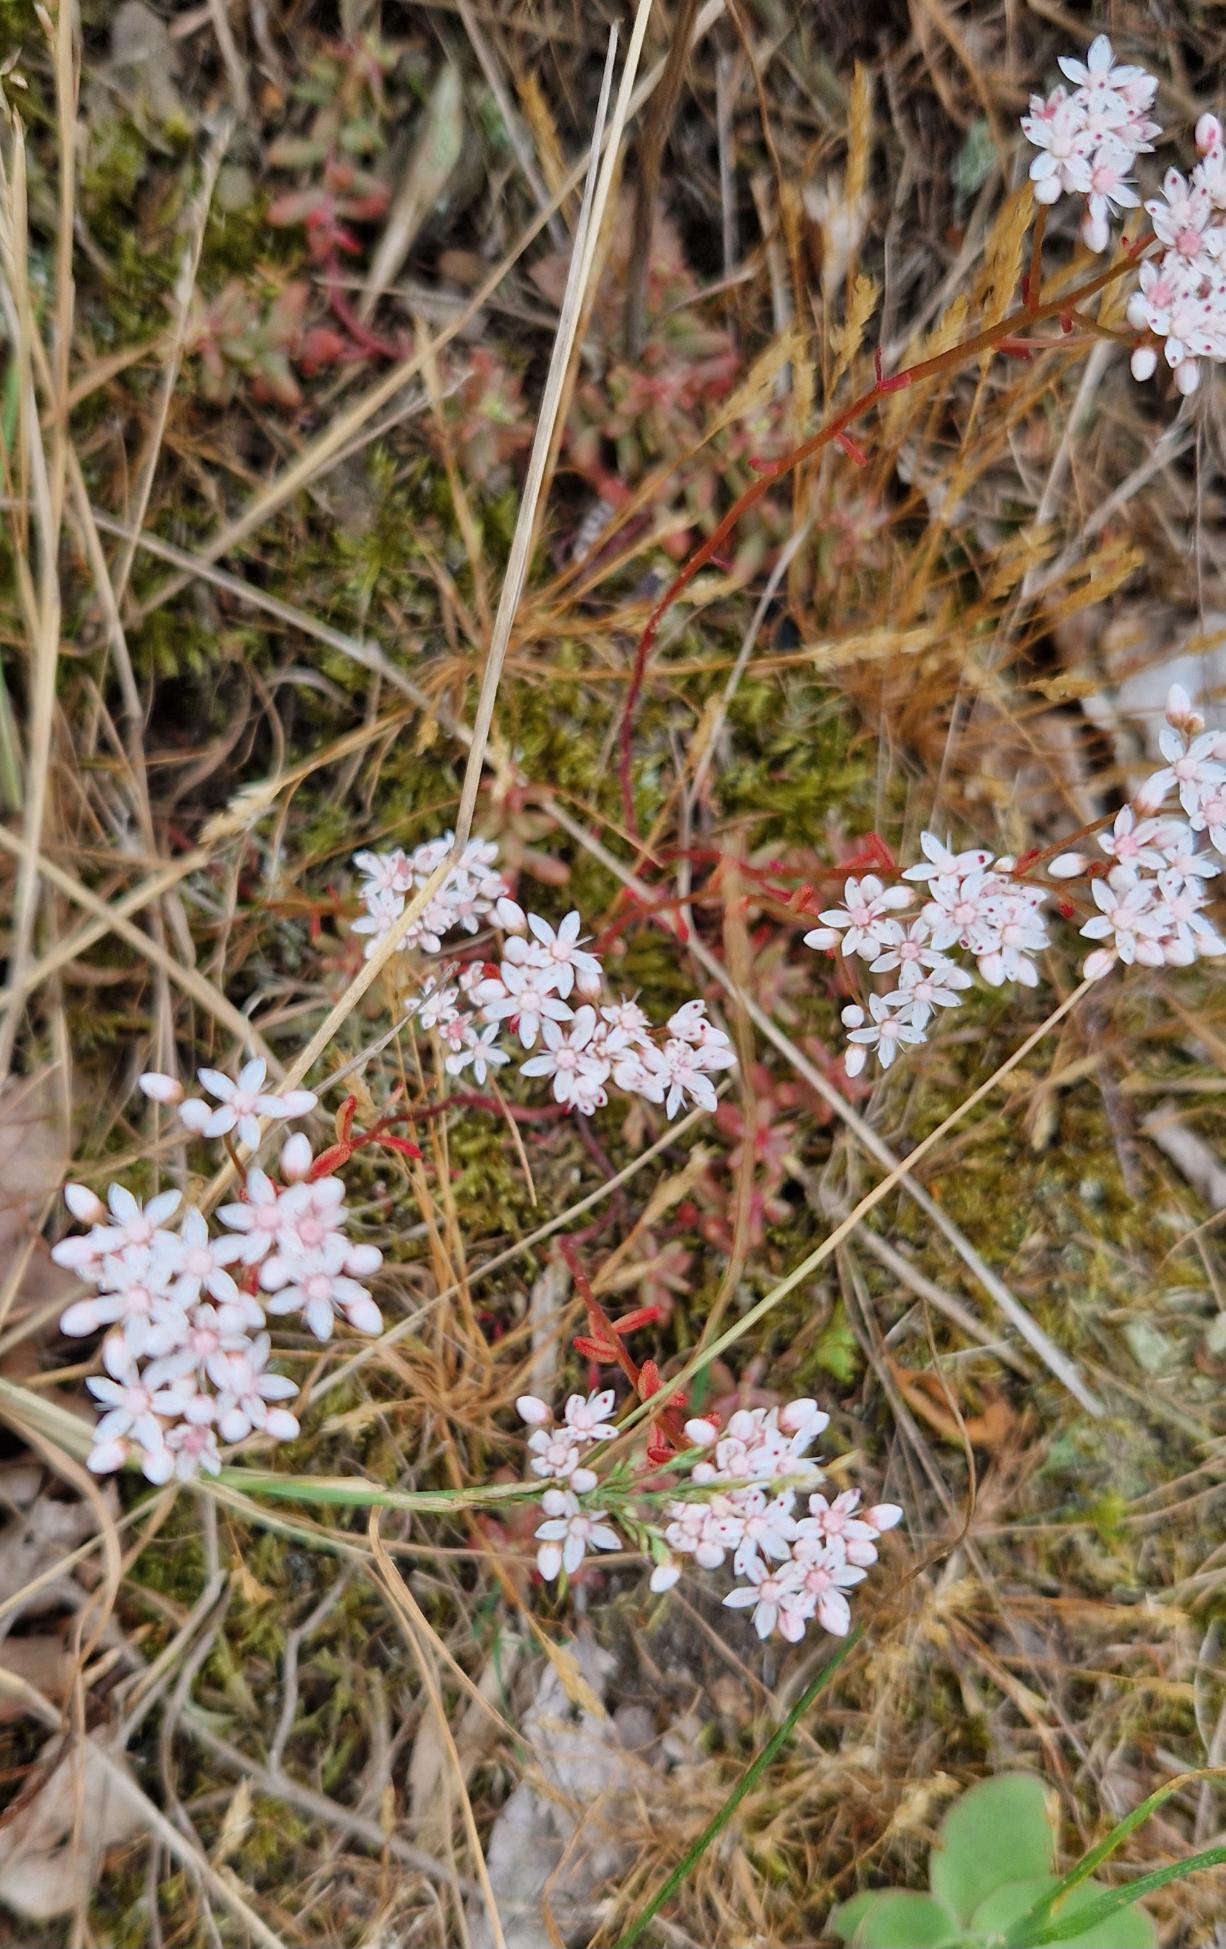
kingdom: Plantae
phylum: Tracheophyta
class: Magnoliopsida
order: Saxifragales
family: Crassulaceae
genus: Sedum
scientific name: Sedum album
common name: Hvid stenurt
